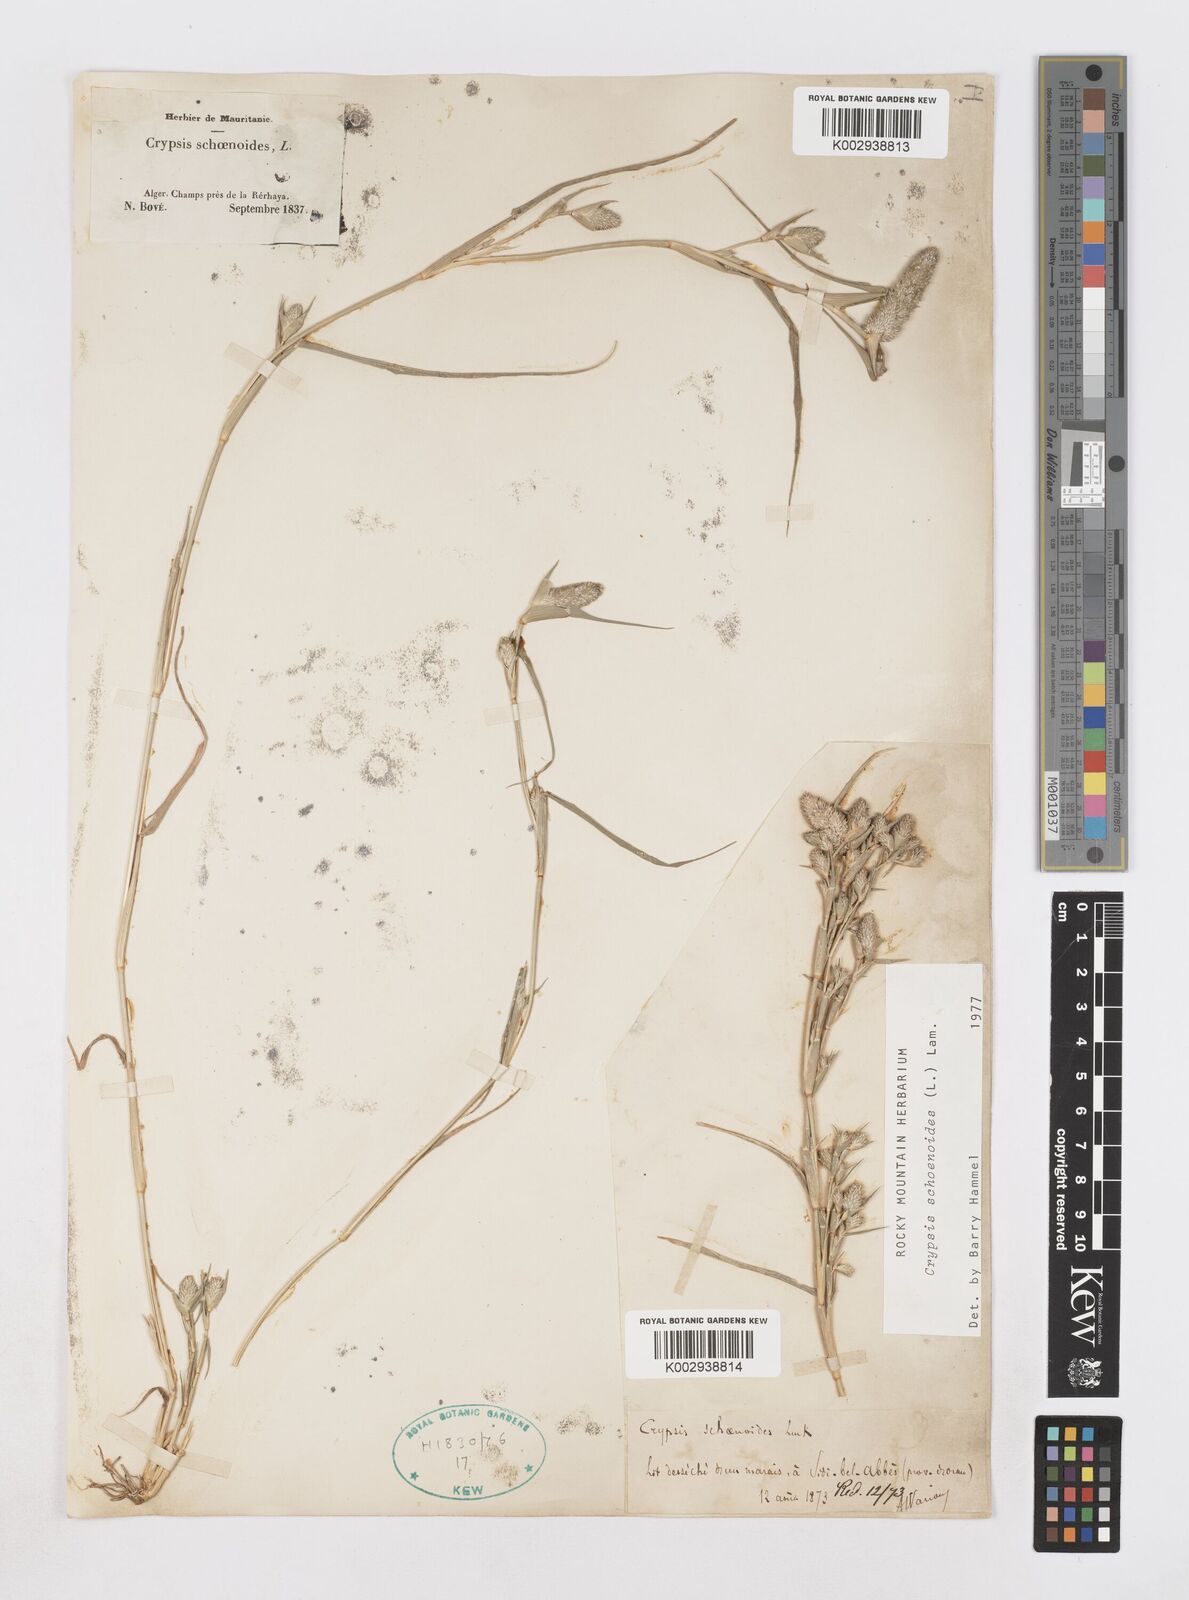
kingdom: Plantae
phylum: Tracheophyta
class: Liliopsida
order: Poales
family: Poaceae
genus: Sporobolus
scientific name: Sporobolus schoenoides
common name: Rush-like timothy
